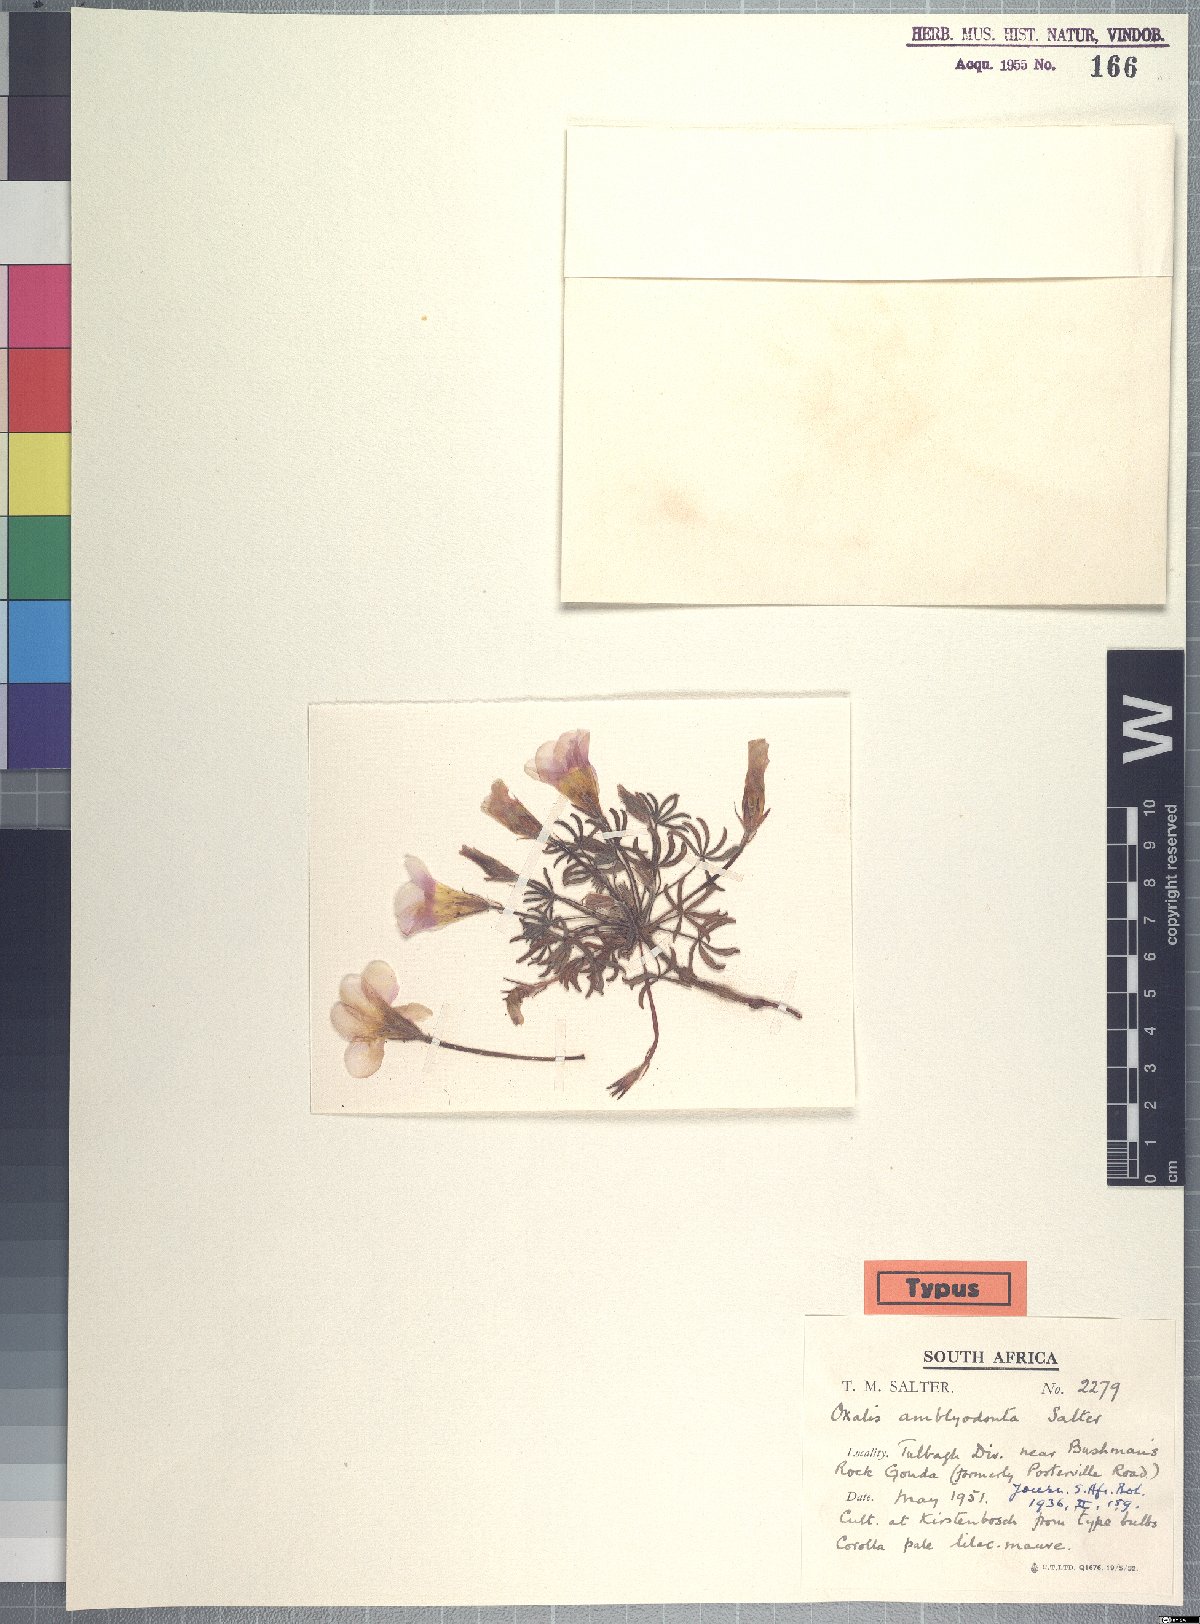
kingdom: Plantae
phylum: Tracheophyta
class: Magnoliopsida
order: Oxalidales
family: Oxalidaceae
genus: Oxalis
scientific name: Oxalis amblyodonta
